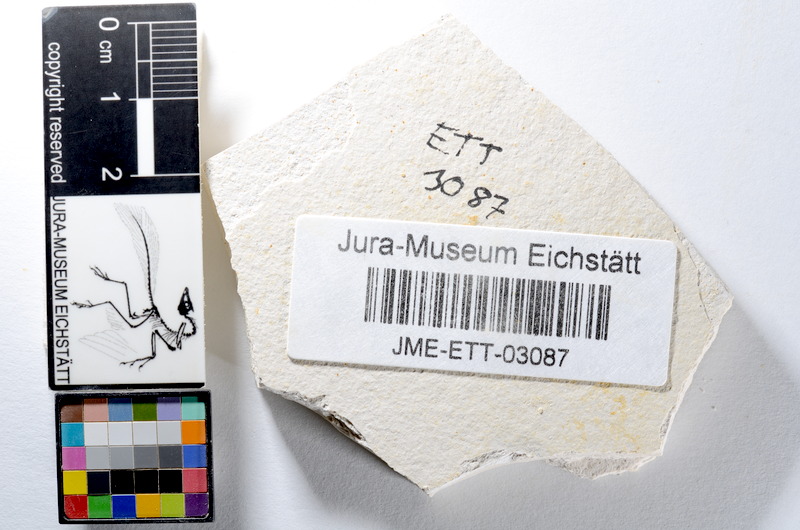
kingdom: Animalia
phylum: Chordata
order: Salmoniformes
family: Orthogonikleithridae
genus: Orthogonikleithrus
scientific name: Orthogonikleithrus hoelli
